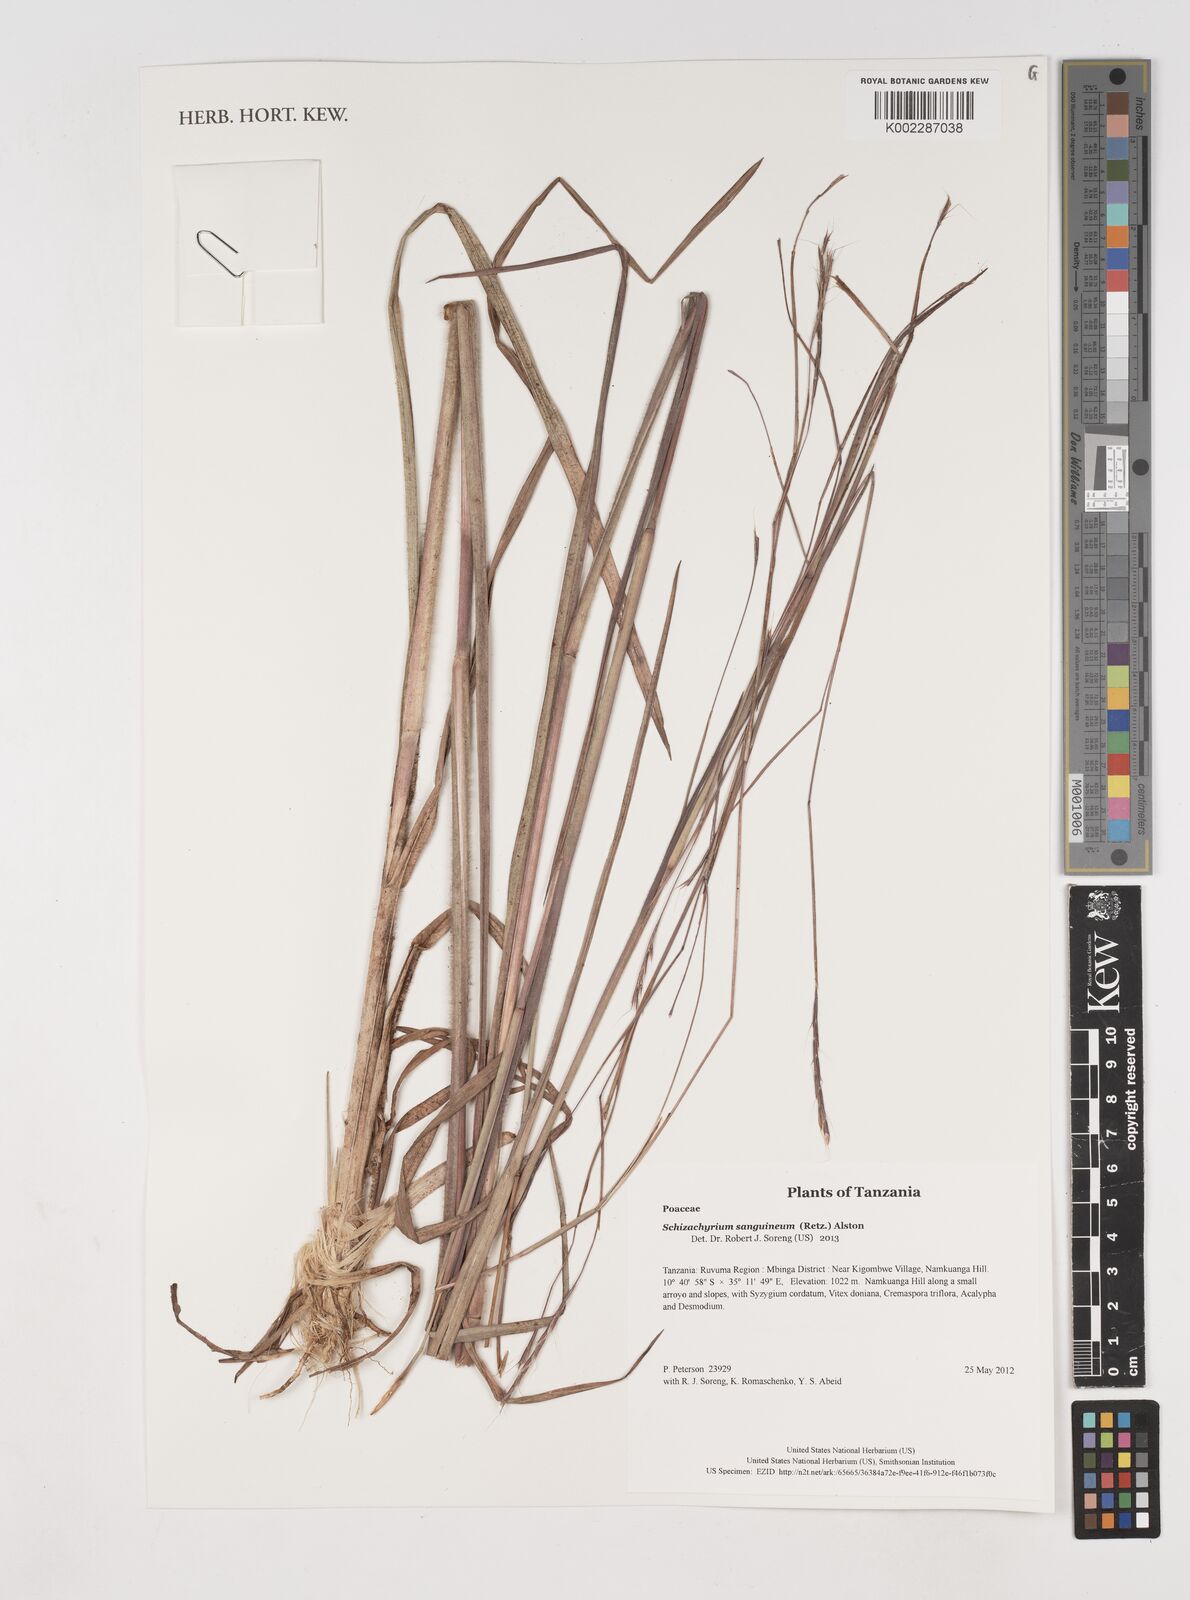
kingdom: Plantae
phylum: Tracheophyta
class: Liliopsida
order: Poales
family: Poaceae
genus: Schizachyrium
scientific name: Schizachyrium sanguineum
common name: Crimson bluestem
